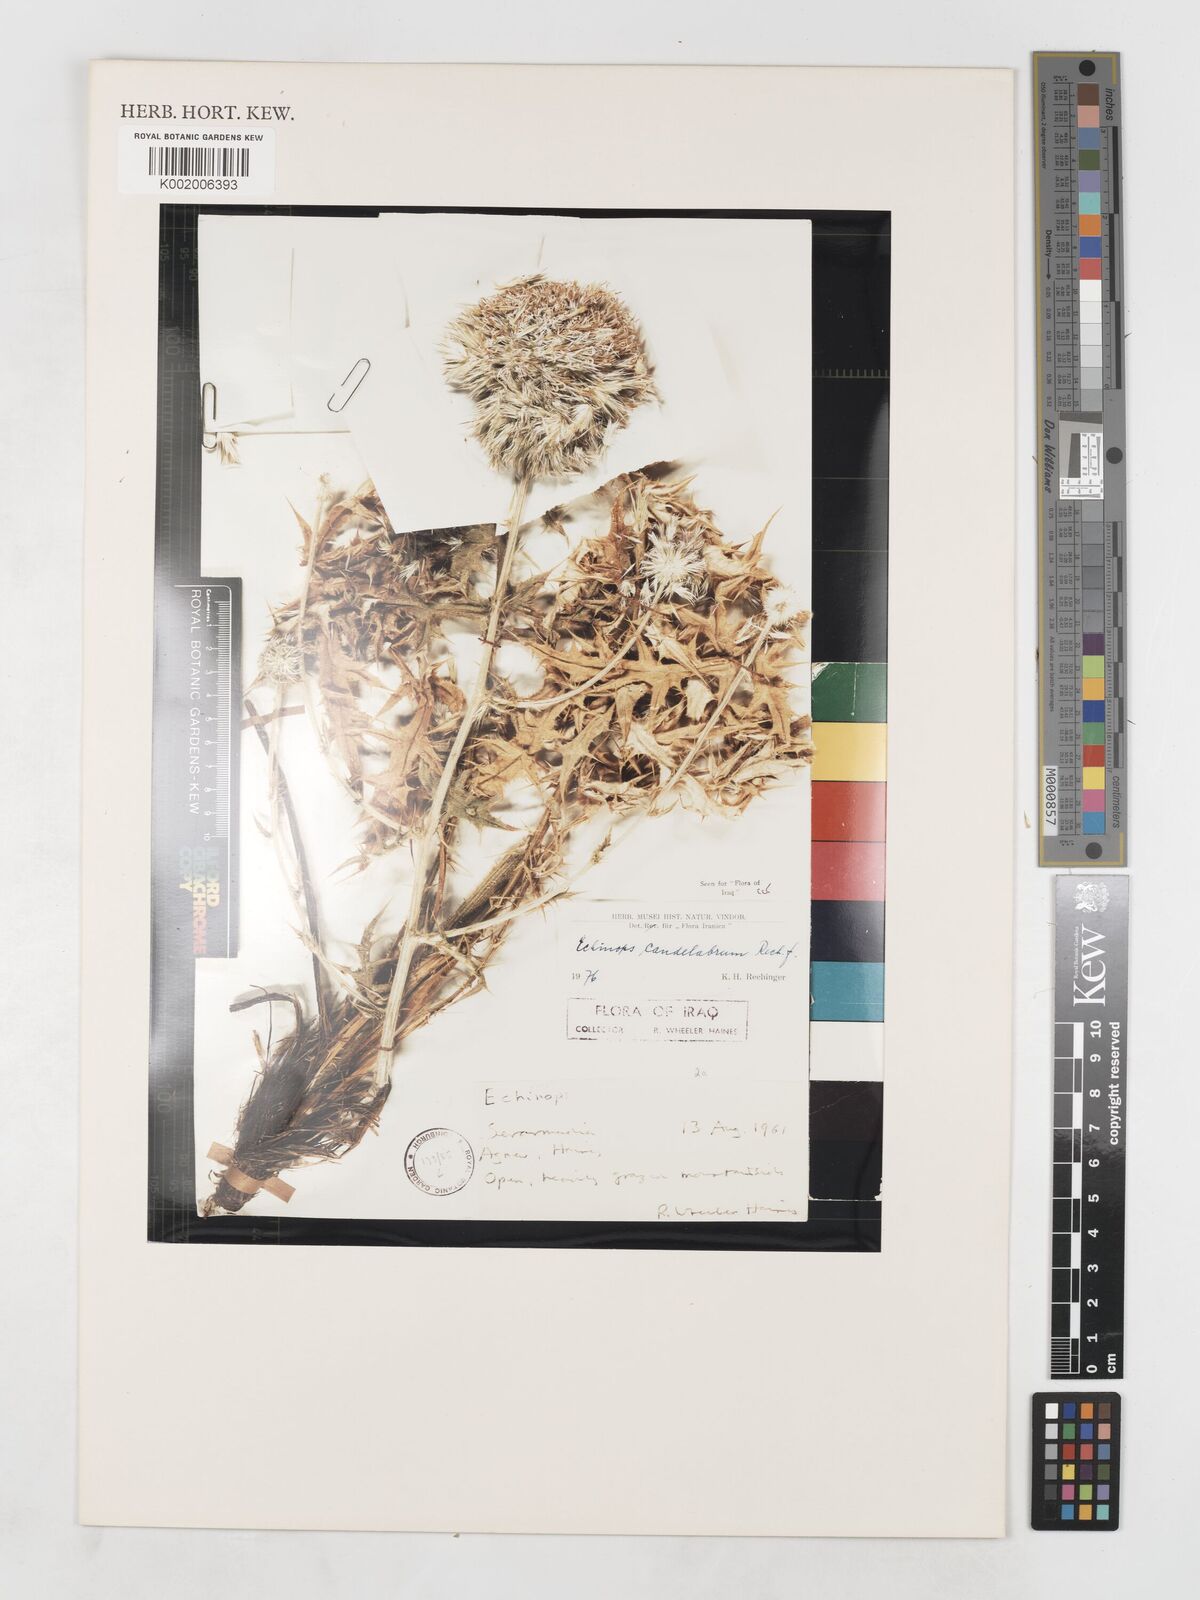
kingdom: Plantae
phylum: Tracheophyta
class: Magnoliopsida
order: Asterales
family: Asteraceae
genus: Echinops
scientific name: Echinops candelabrum
